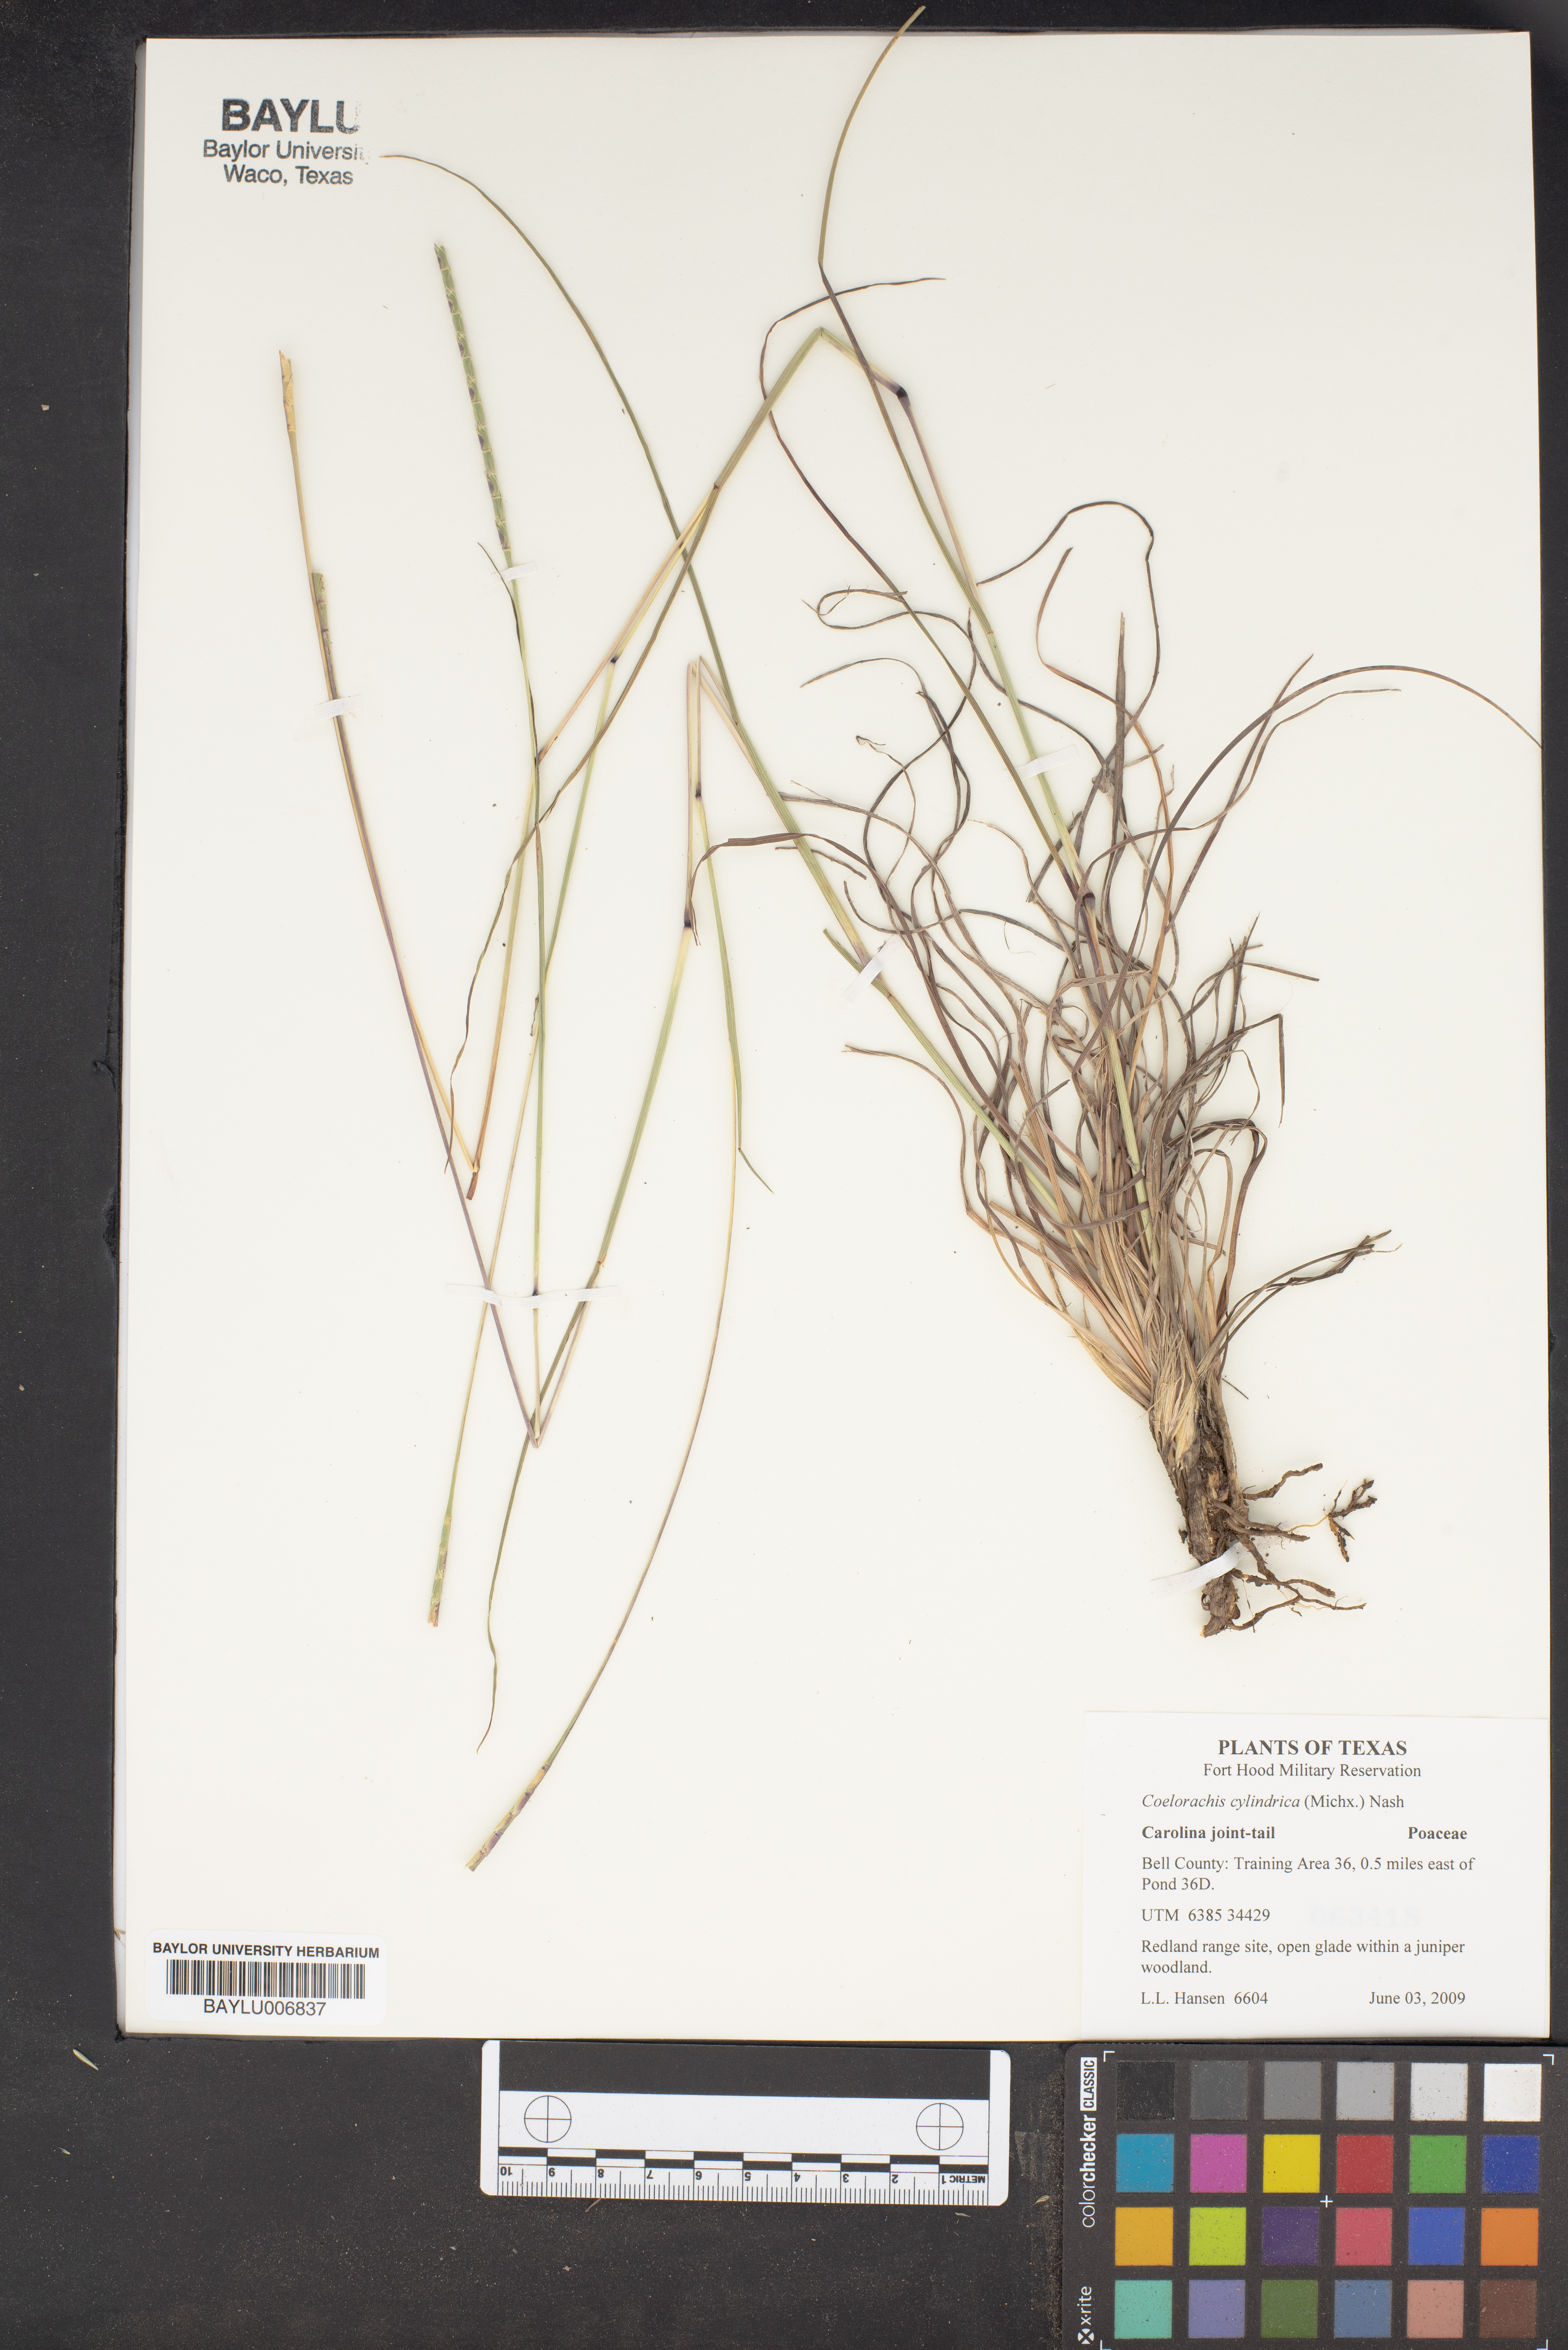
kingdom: Plantae
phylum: Tracheophyta
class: Liliopsida
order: Poales
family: Poaceae
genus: Rottboellia
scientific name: Rottboellia campestris
